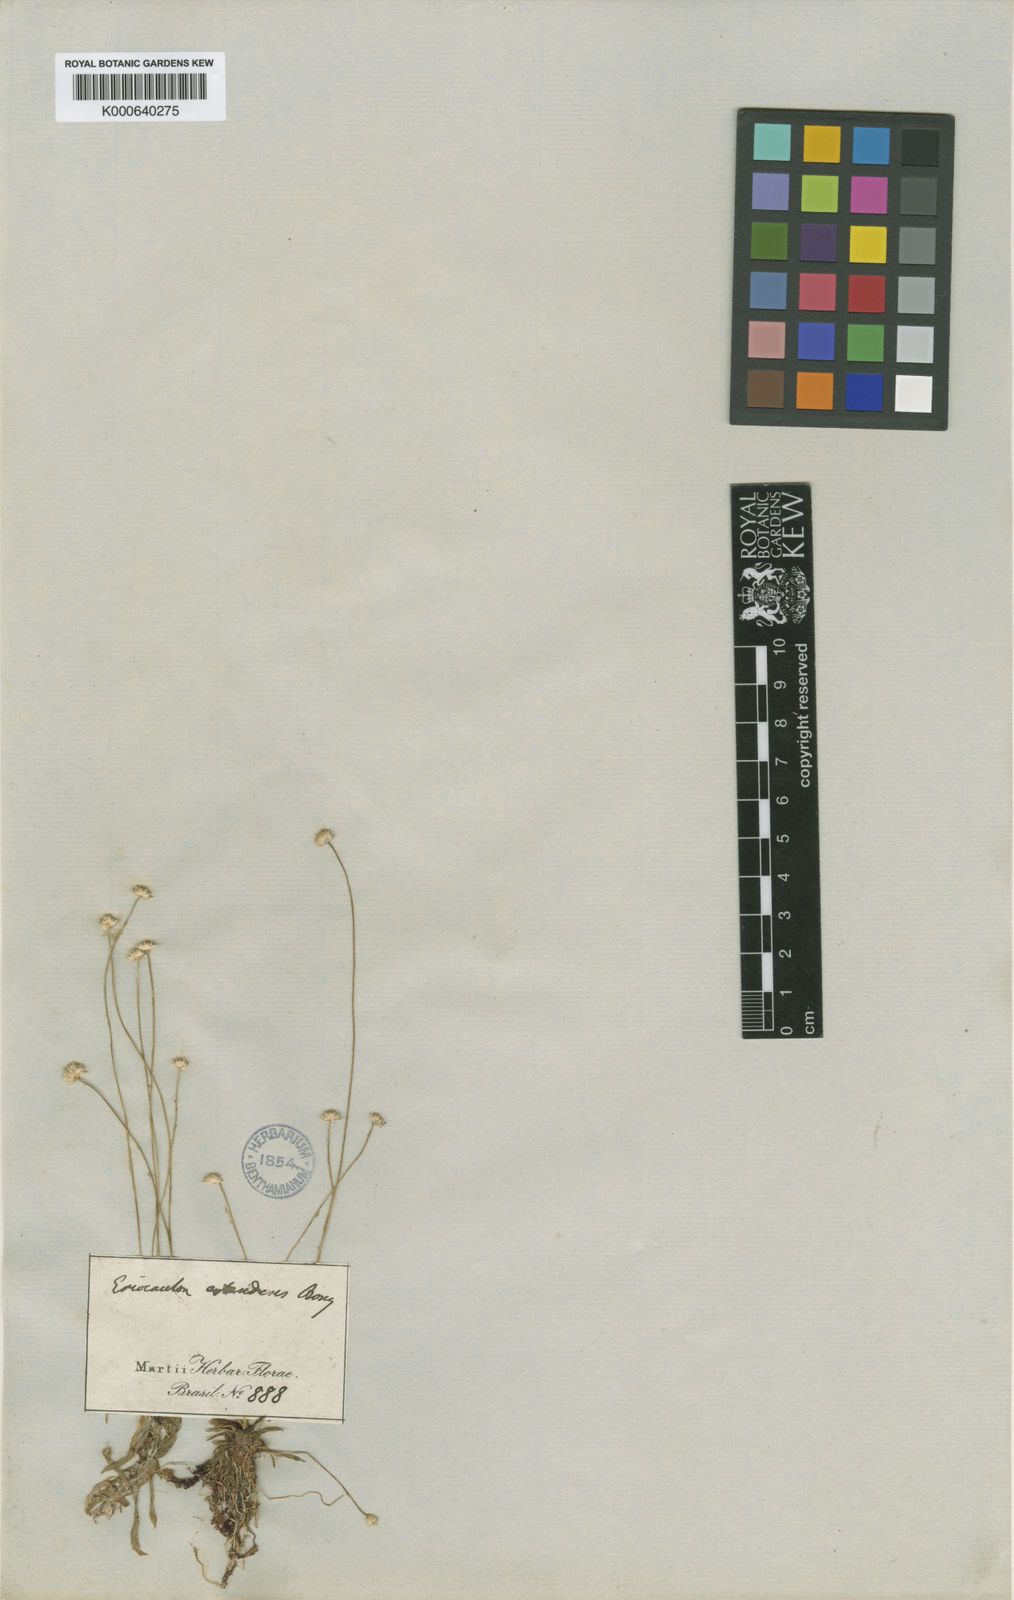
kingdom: Plantae
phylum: Tracheophyta
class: Liliopsida
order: Poales
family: Eriocaulaceae
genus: Syngonanthus
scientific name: Syngonanthus caulescens
